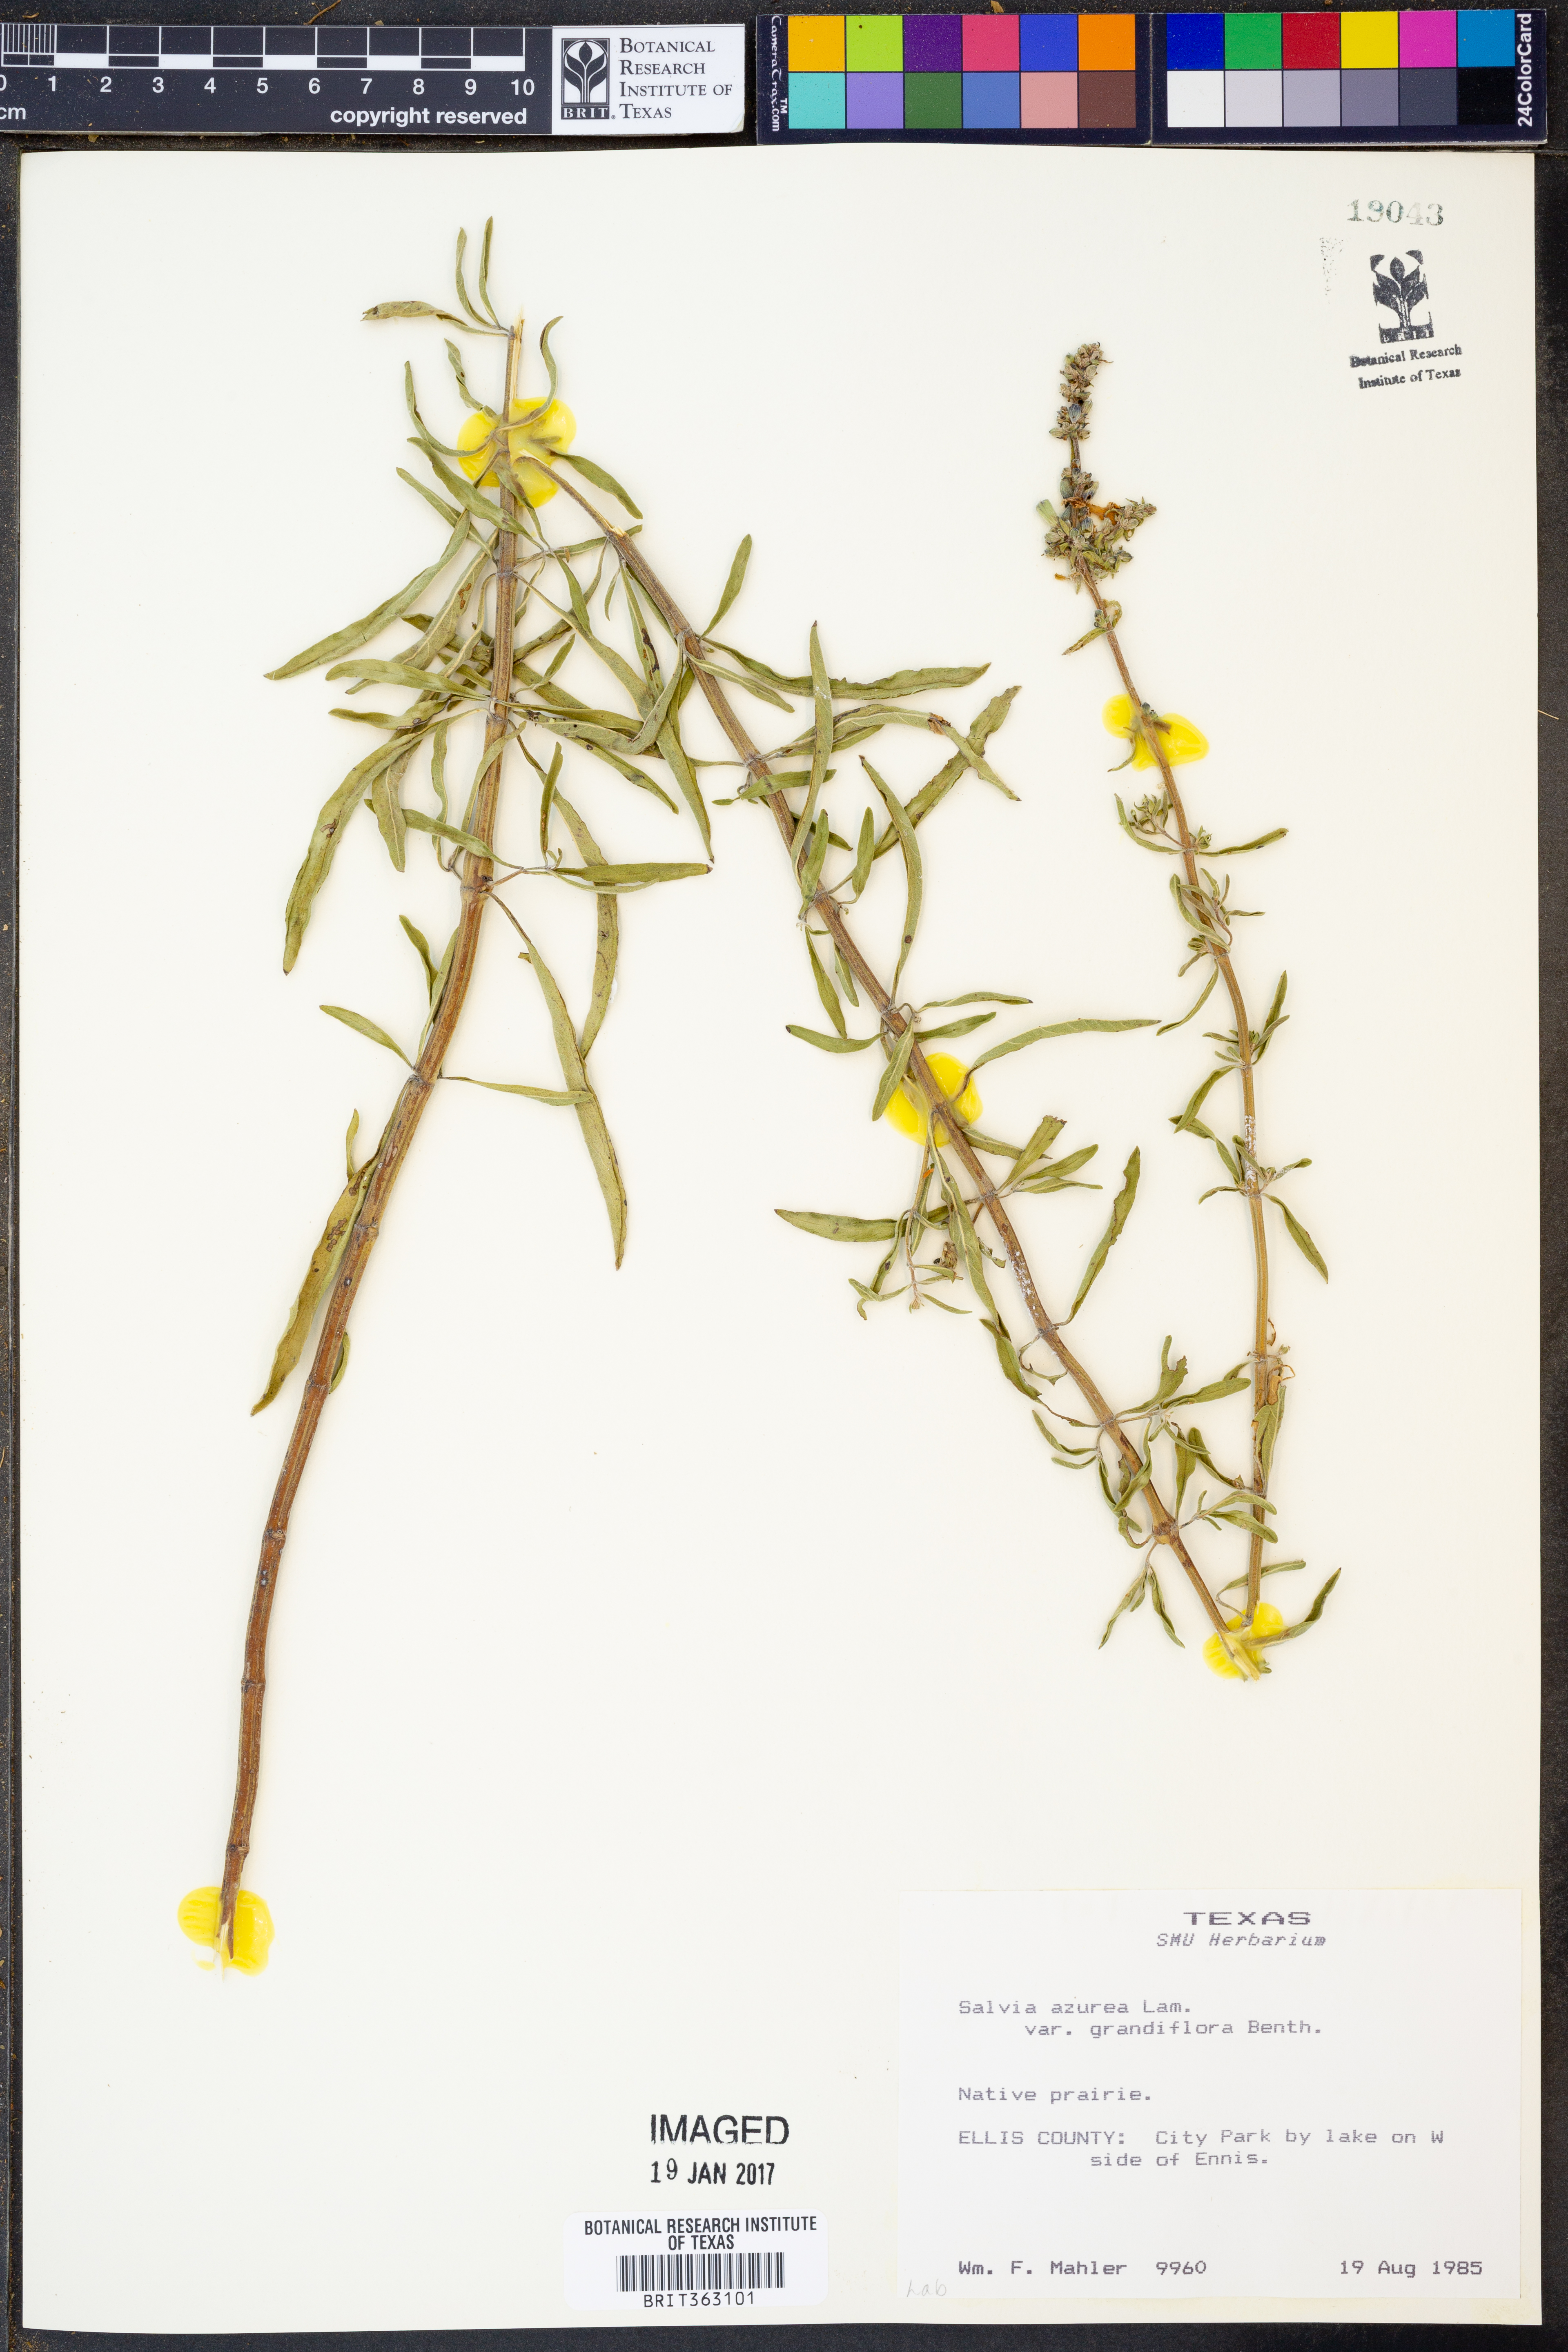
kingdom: Plantae
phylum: Tracheophyta
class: Magnoliopsida
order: Lamiales
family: Lamiaceae
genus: Salvia
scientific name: Salvia azurea
